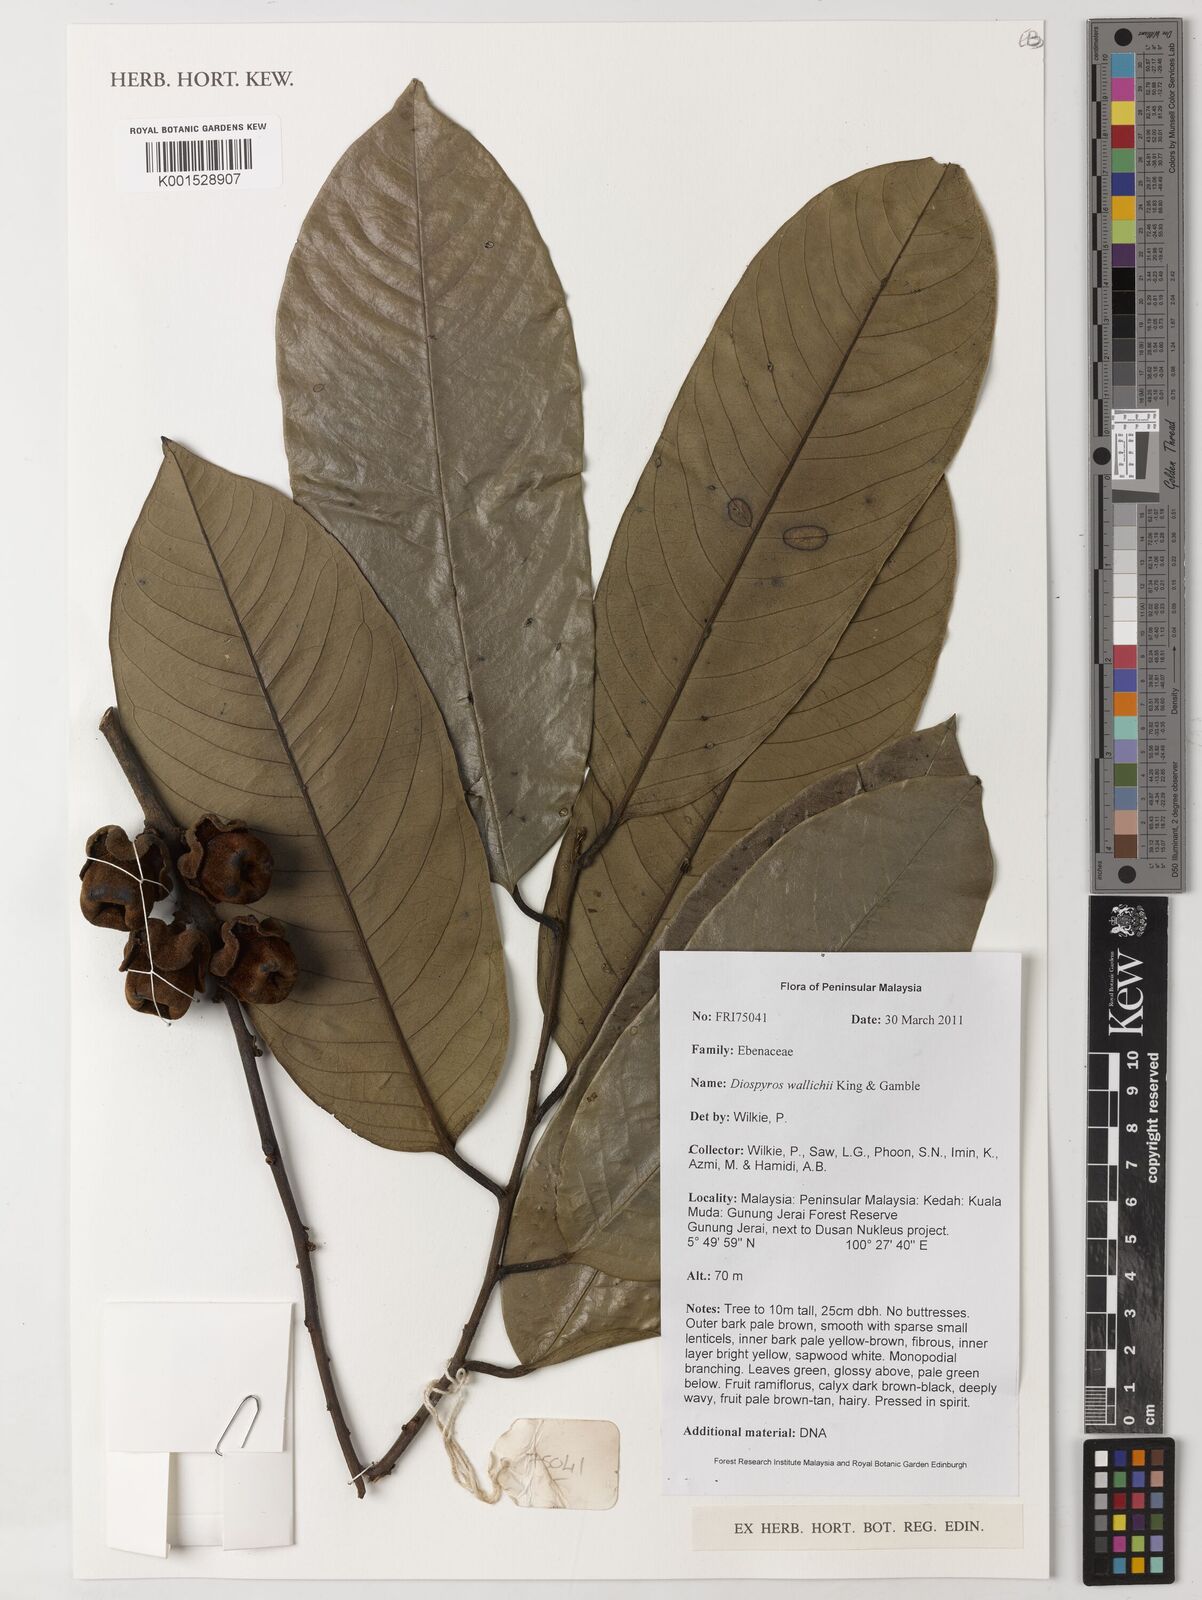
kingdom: Plantae
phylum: Tracheophyta
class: Magnoliopsida
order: Ericales
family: Ebenaceae
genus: Diospyros
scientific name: Diospyros wallichii
